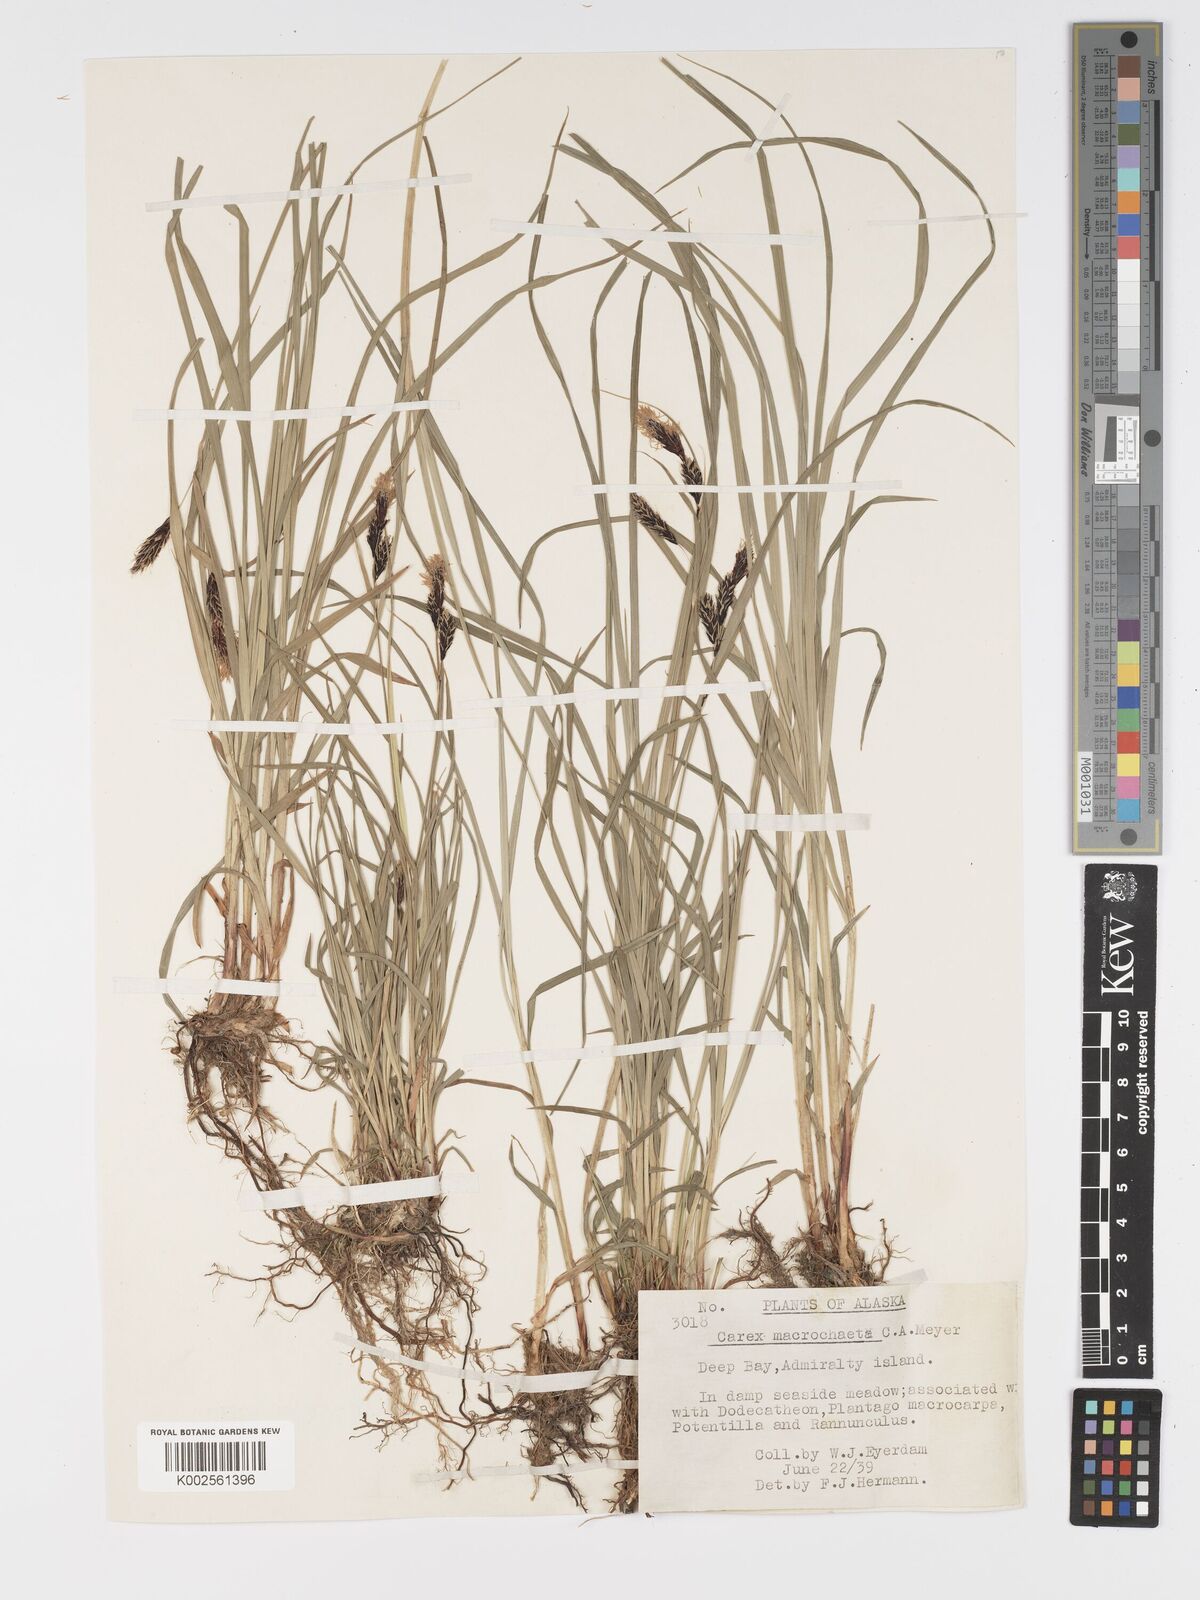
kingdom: Plantae
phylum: Tracheophyta
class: Liliopsida
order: Poales
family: Cyperaceae
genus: Carex
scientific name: Carex macrochaeta
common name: Alaska large awn sedge
